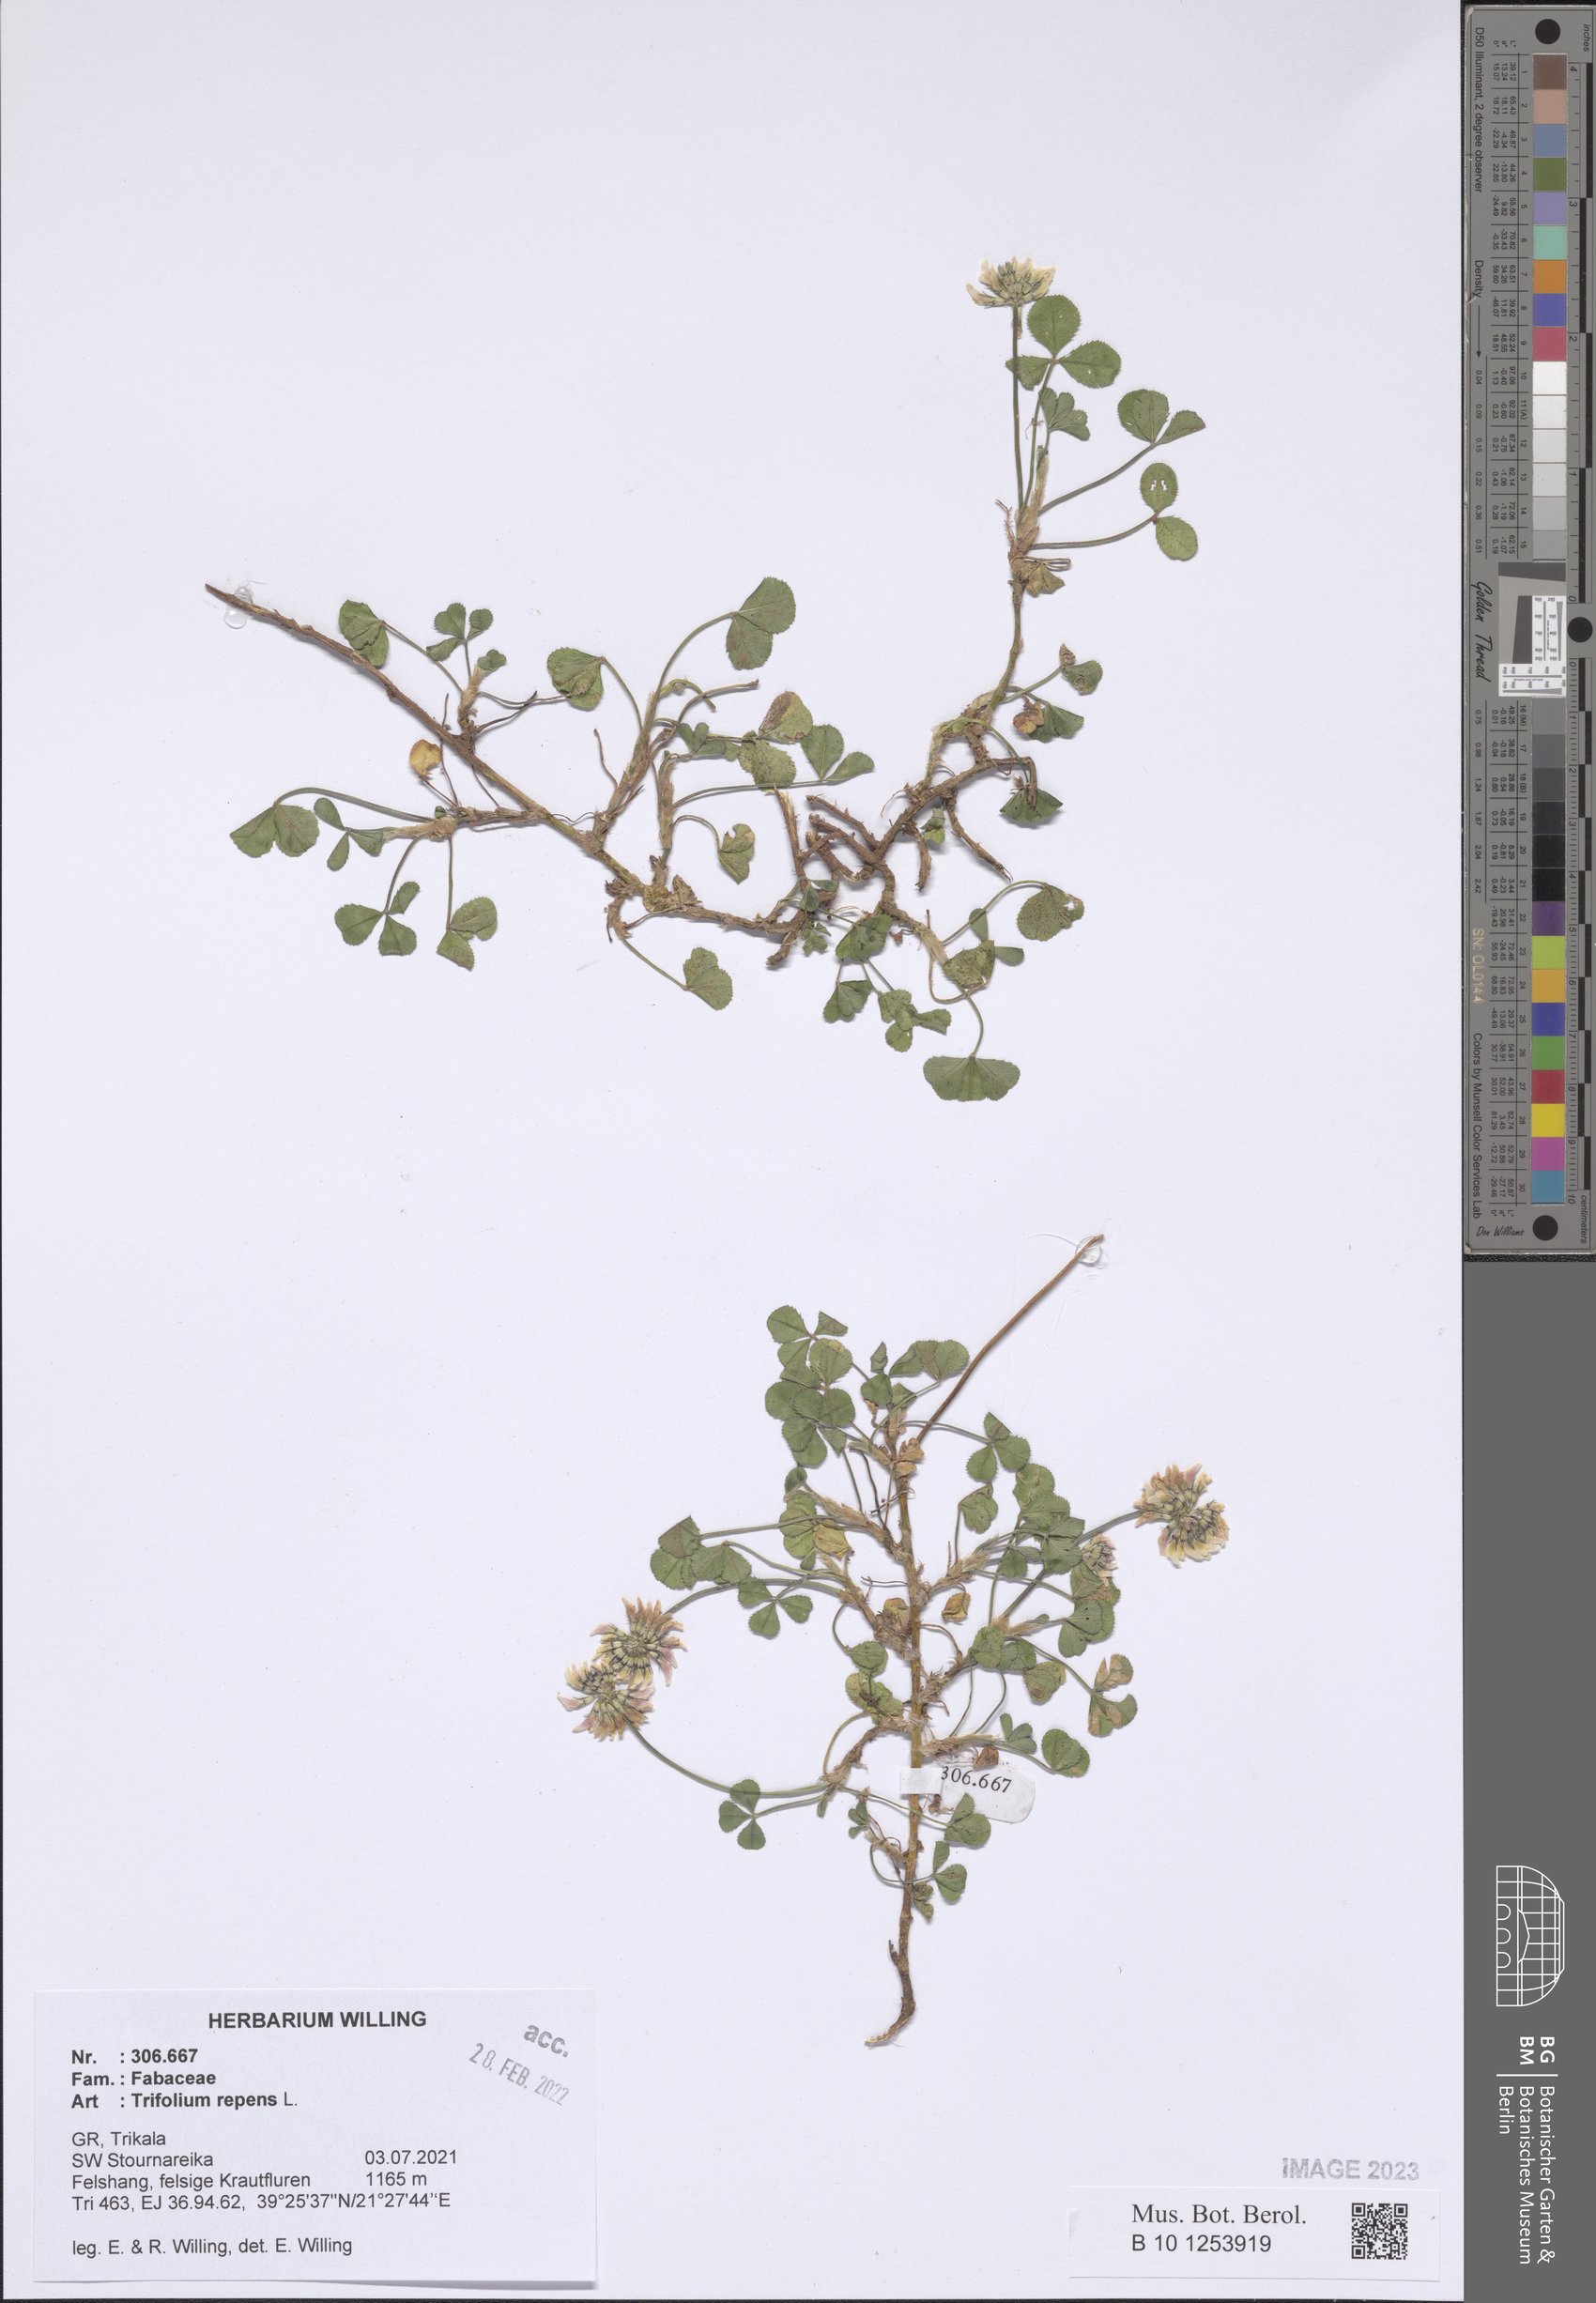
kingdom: Plantae
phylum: Tracheophyta
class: Magnoliopsida
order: Fabales
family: Fabaceae
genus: Trifolium
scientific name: Trifolium repens
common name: White clover
